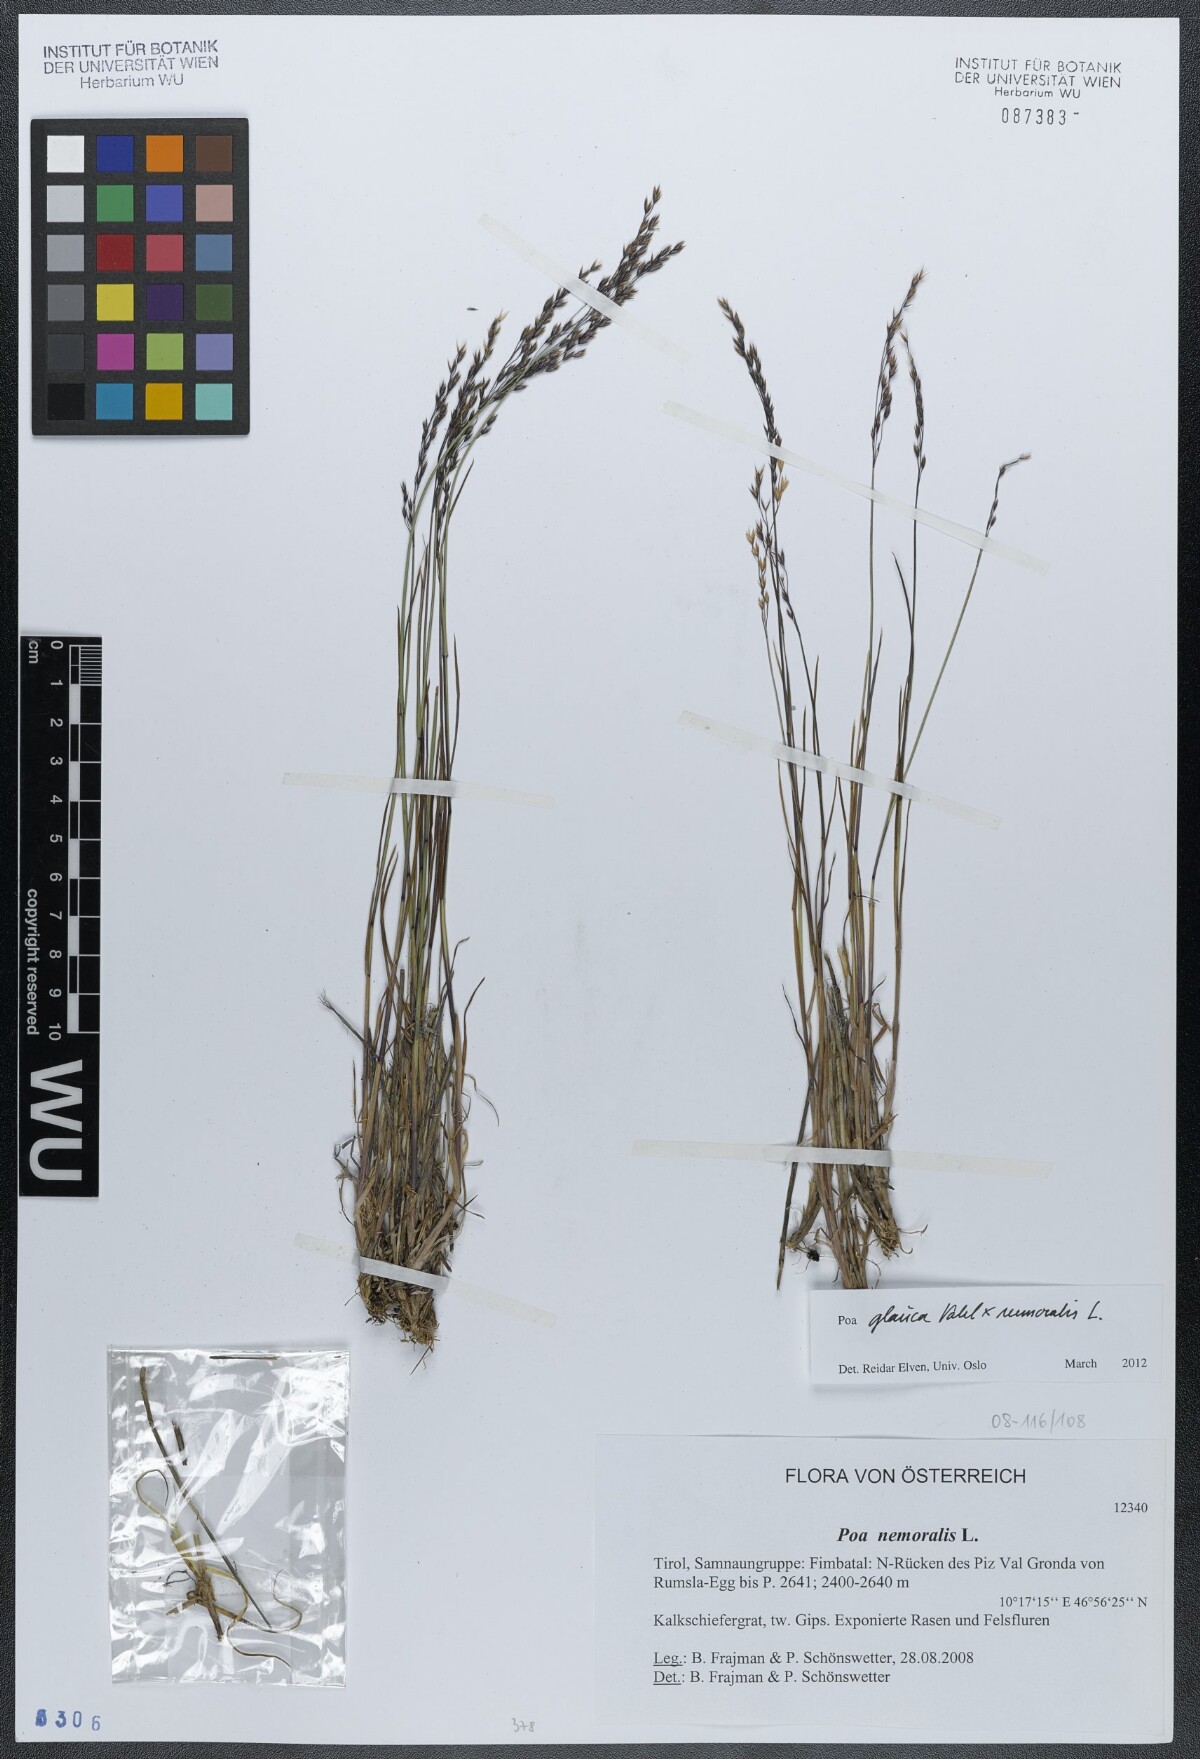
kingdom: Plantae
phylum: Tracheophyta
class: Liliopsida
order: Poales
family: Poaceae
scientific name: Poaceae
